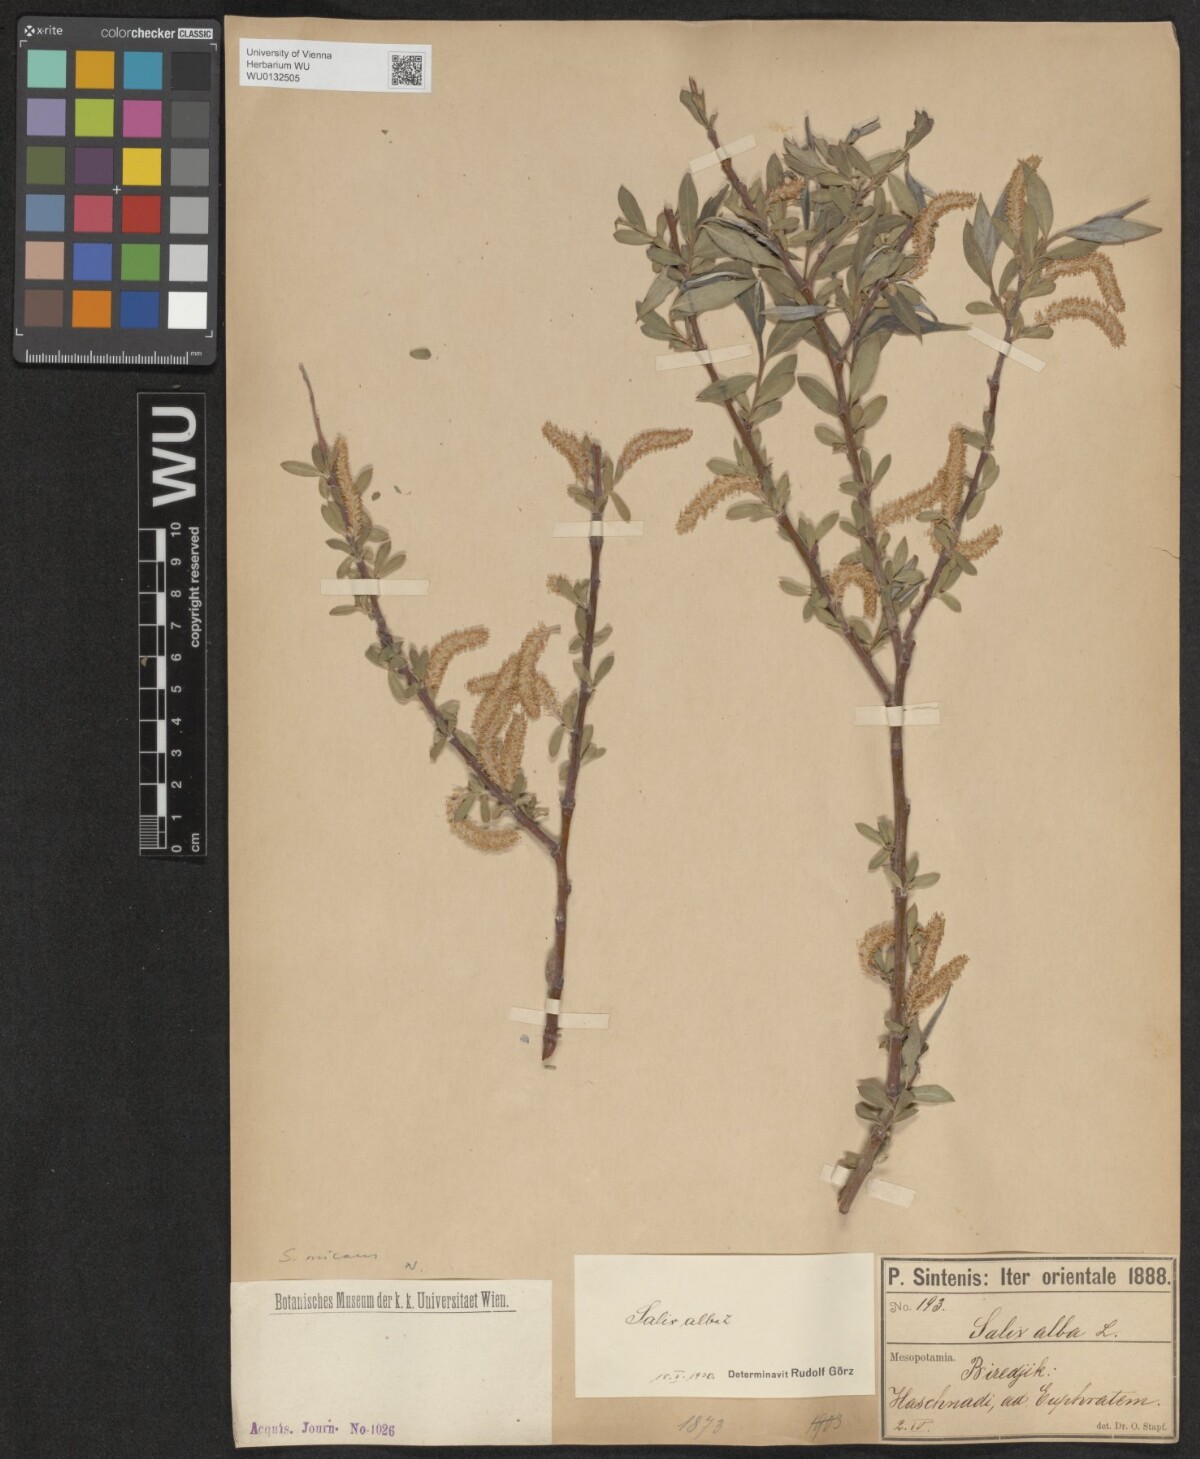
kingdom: Plantae
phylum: Tracheophyta
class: Magnoliopsida
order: Malpighiales
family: Salicaceae
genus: Salix
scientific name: Salix alba
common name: White willow
